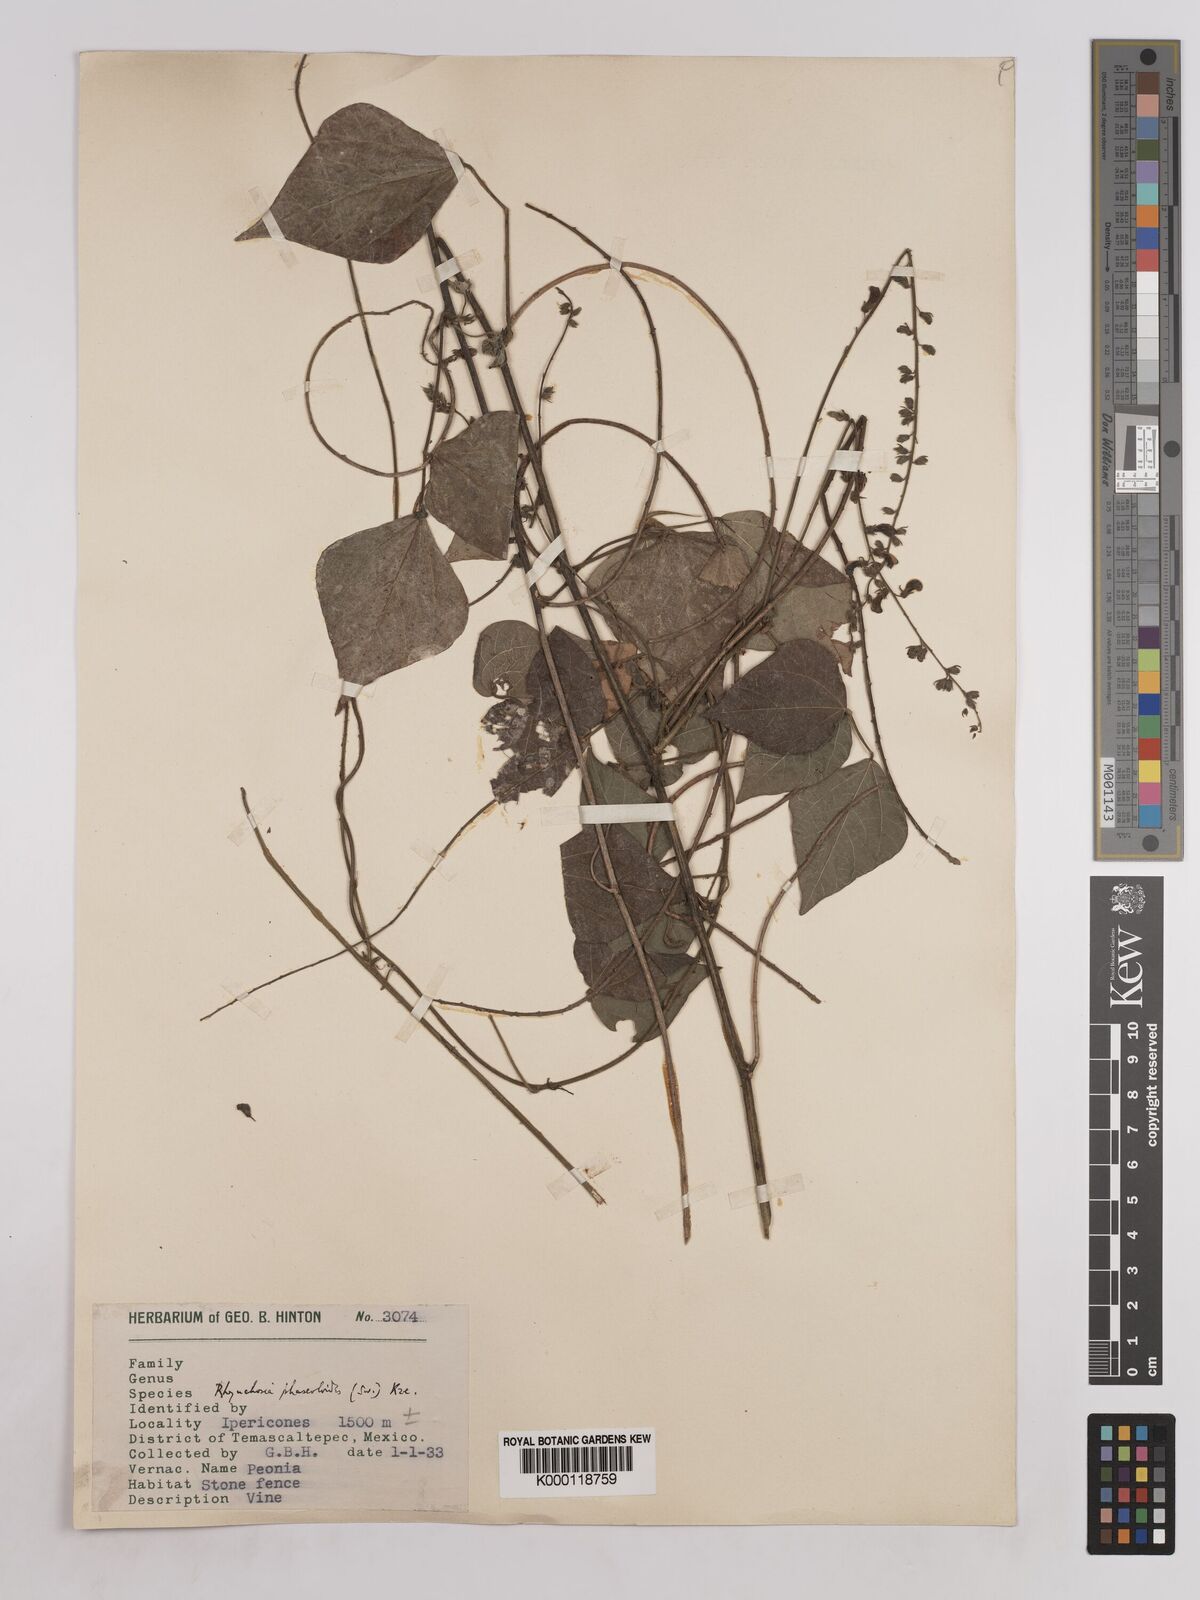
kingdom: Plantae
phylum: Tracheophyta
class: Magnoliopsida
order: Fabales
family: Fabaceae
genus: Rhynchosia
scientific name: Rhynchosia
